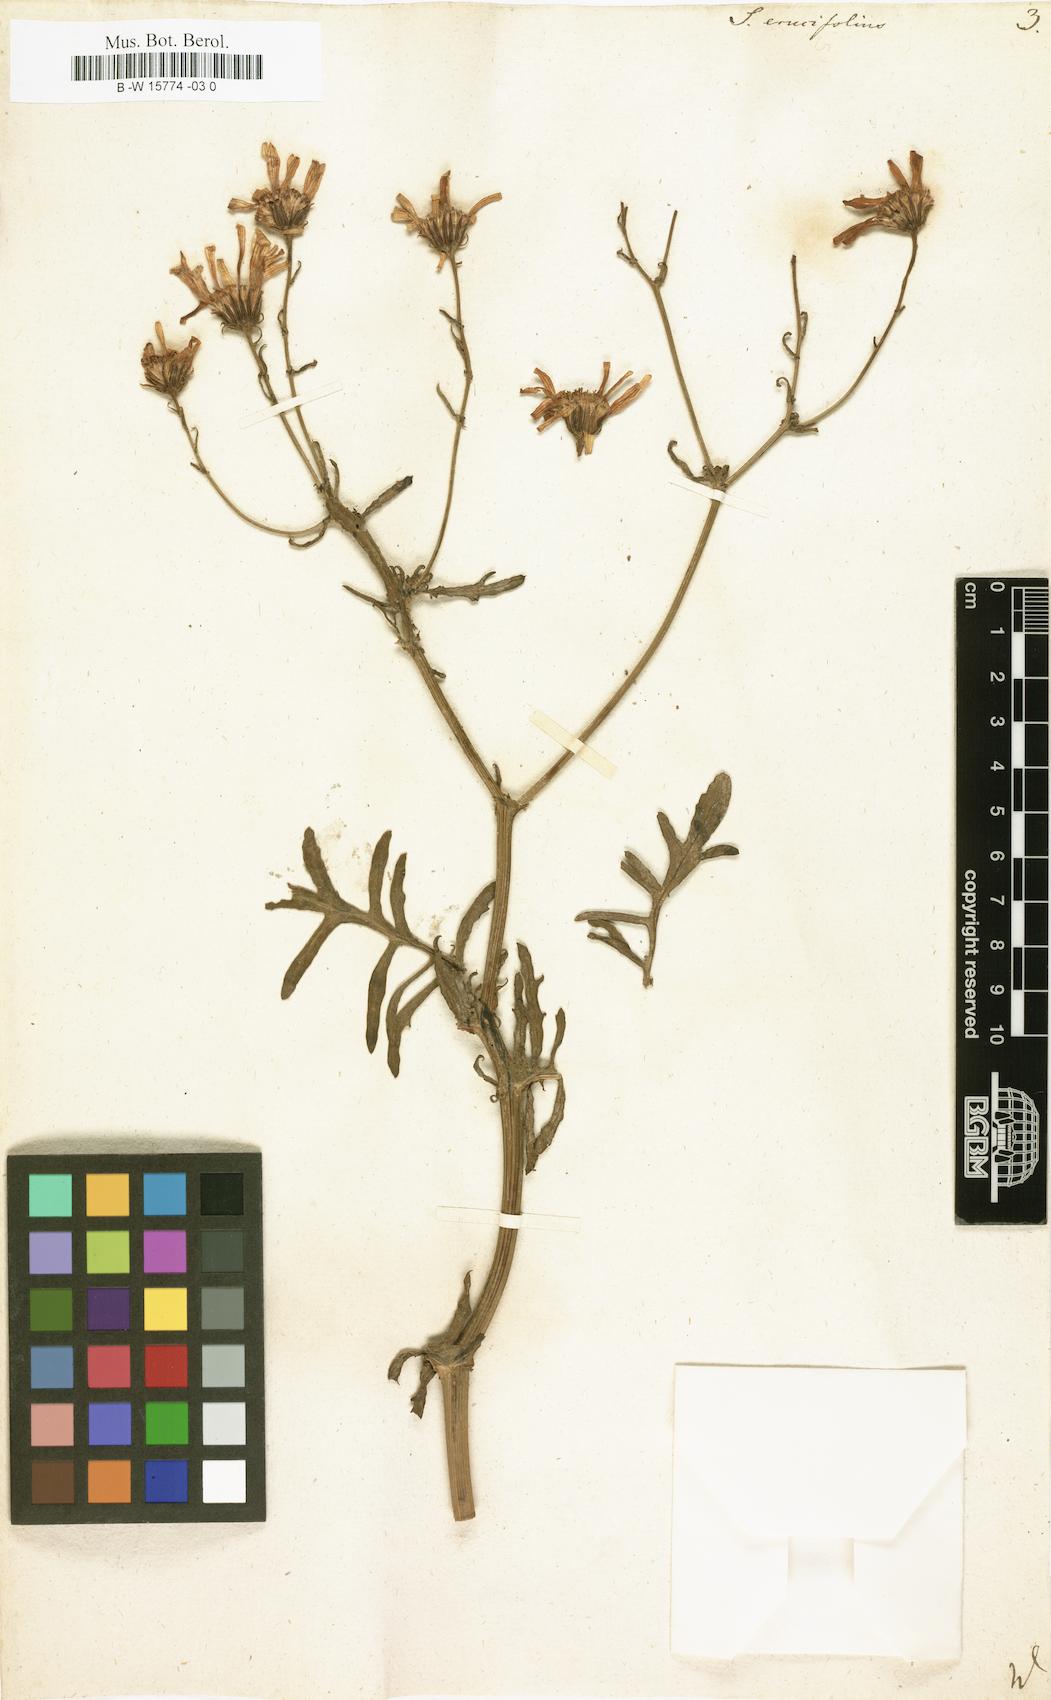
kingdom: Plantae
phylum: Tracheophyta
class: Magnoliopsida
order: Asterales
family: Asteraceae
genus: Jacobaea
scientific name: Jacobaea
